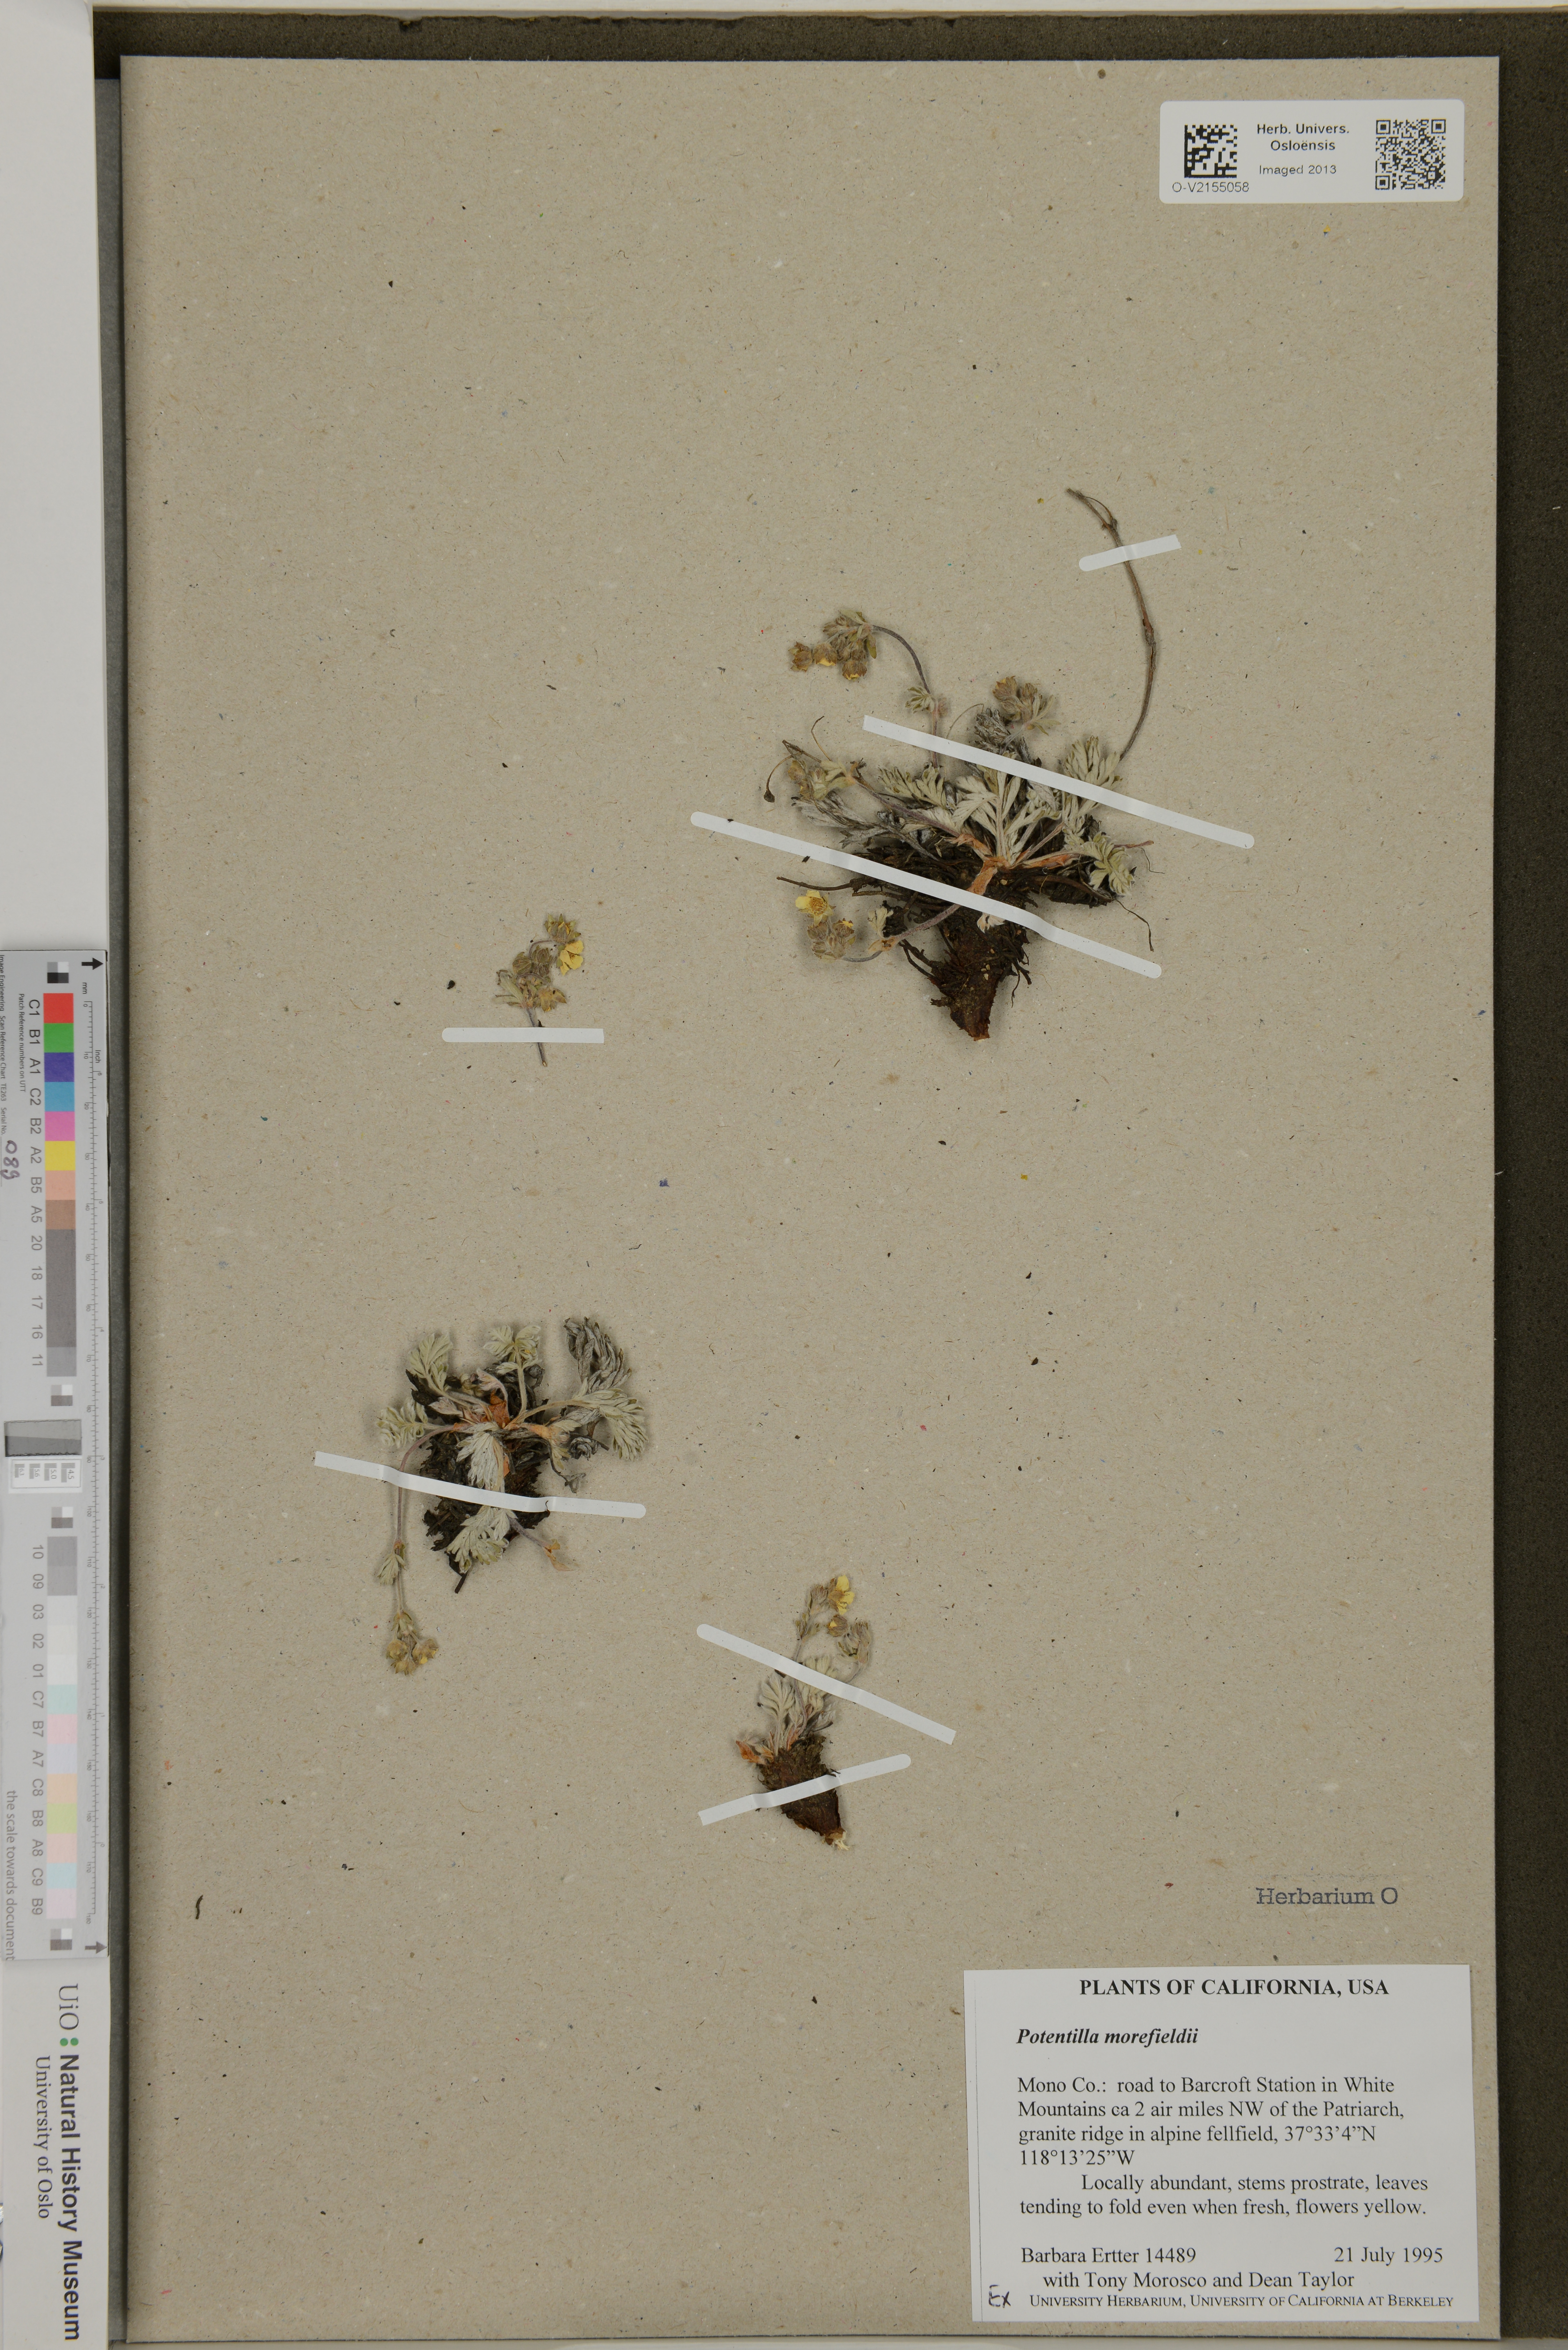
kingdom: Plantae
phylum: Tracheophyta
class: Magnoliopsida
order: Rosales
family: Rosaceae
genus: Potentilla
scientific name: Potentilla morefieldii
